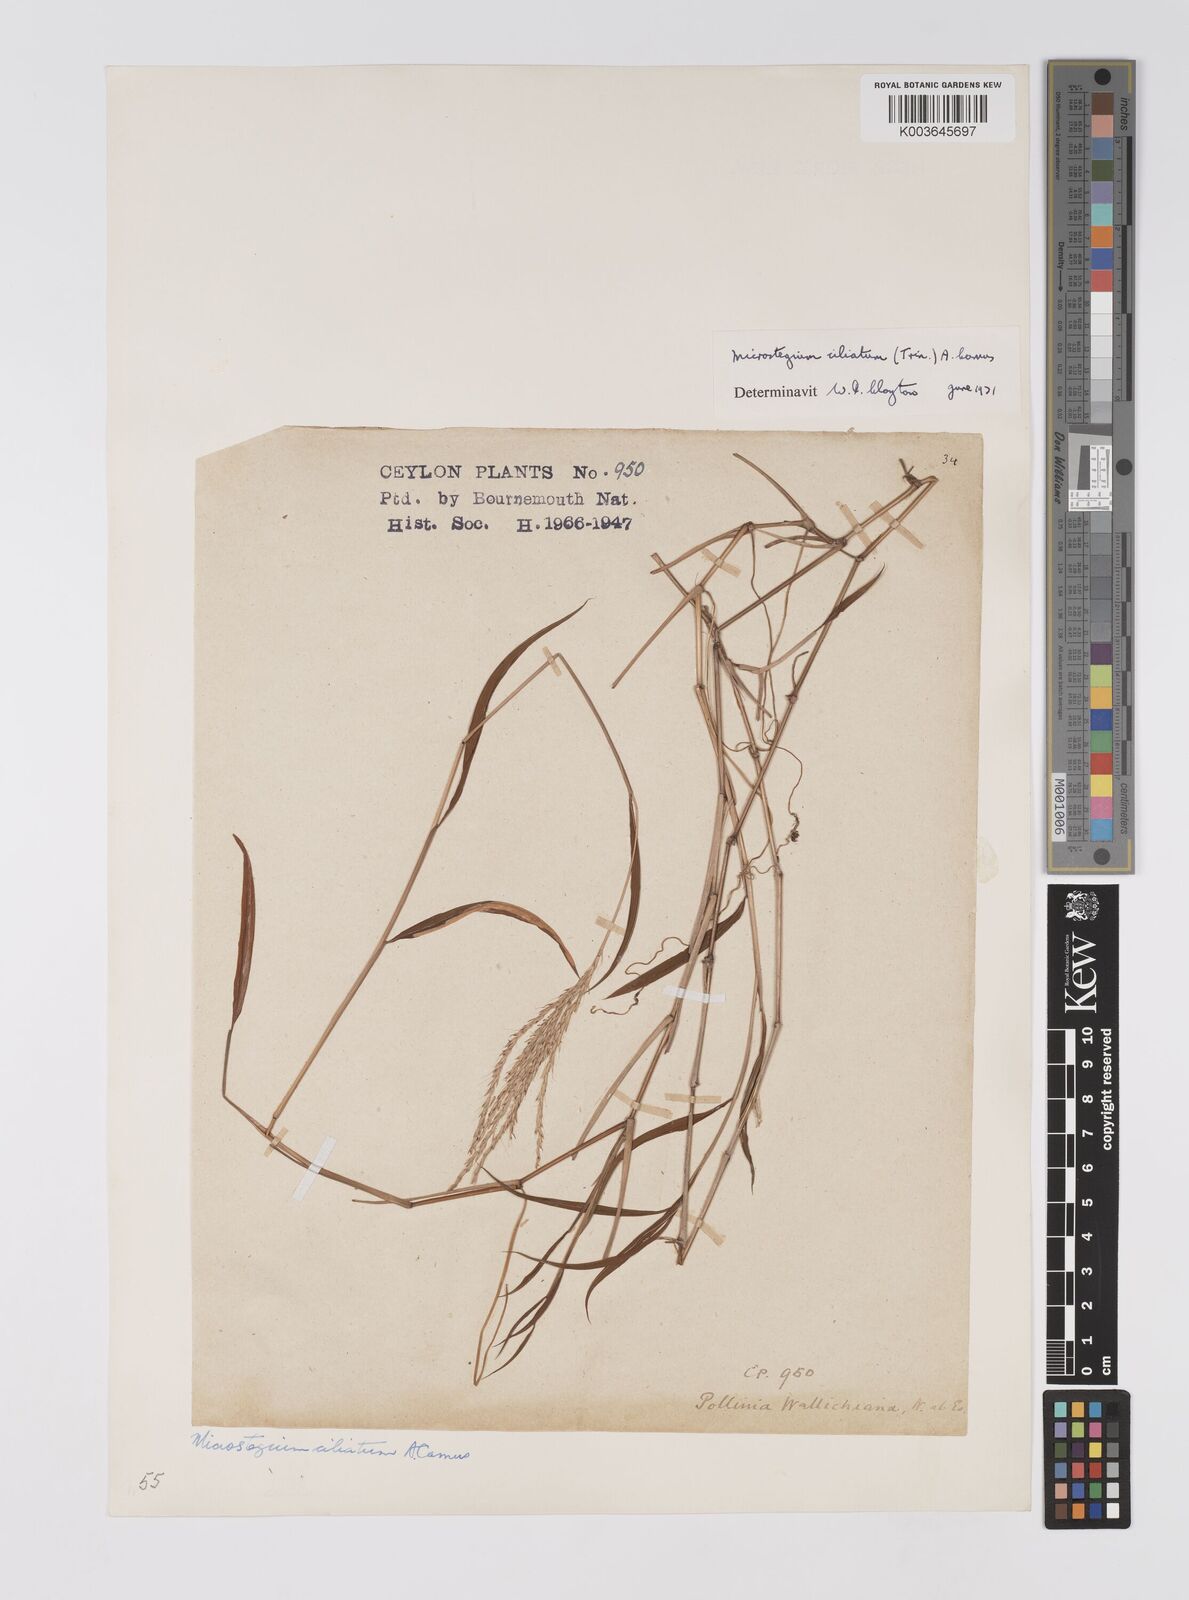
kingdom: Plantae
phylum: Tracheophyta
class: Liliopsida
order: Poales
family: Poaceae
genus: Microstegium
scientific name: Microstegium fasciculatum
